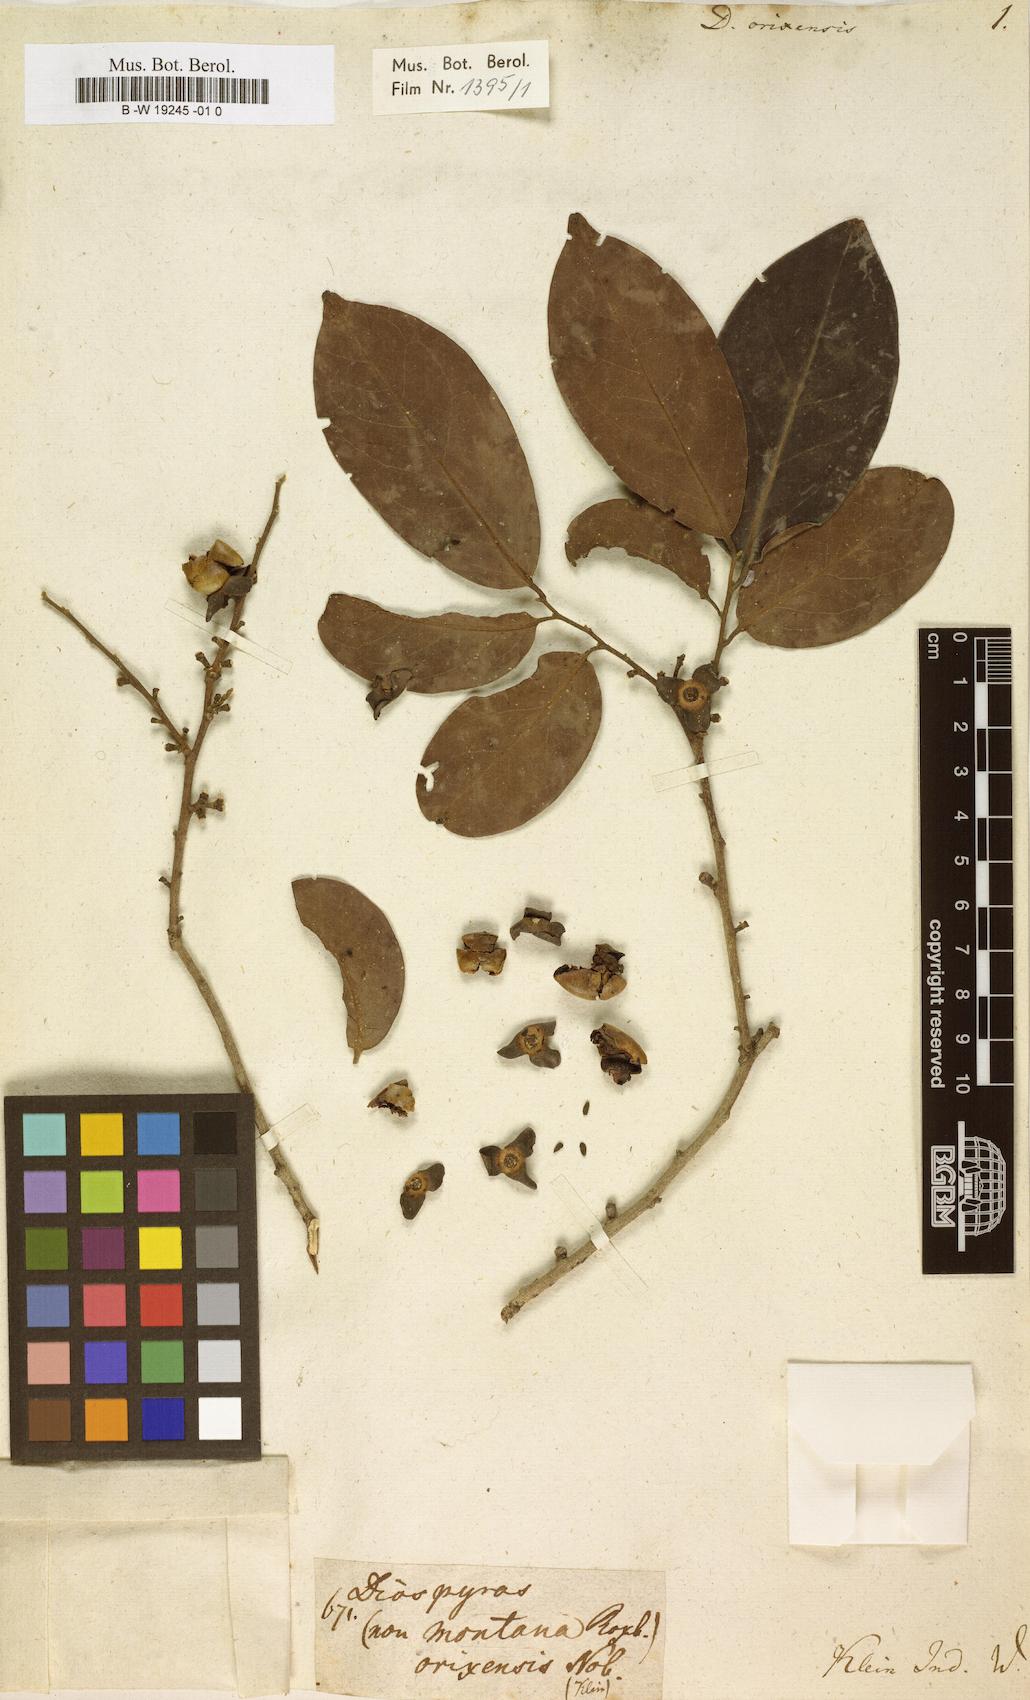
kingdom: Plantae
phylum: Tracheophyta
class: Magnoliopsida
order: Ericales
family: Ebenaceae
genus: Diospyros
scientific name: Diospyros
